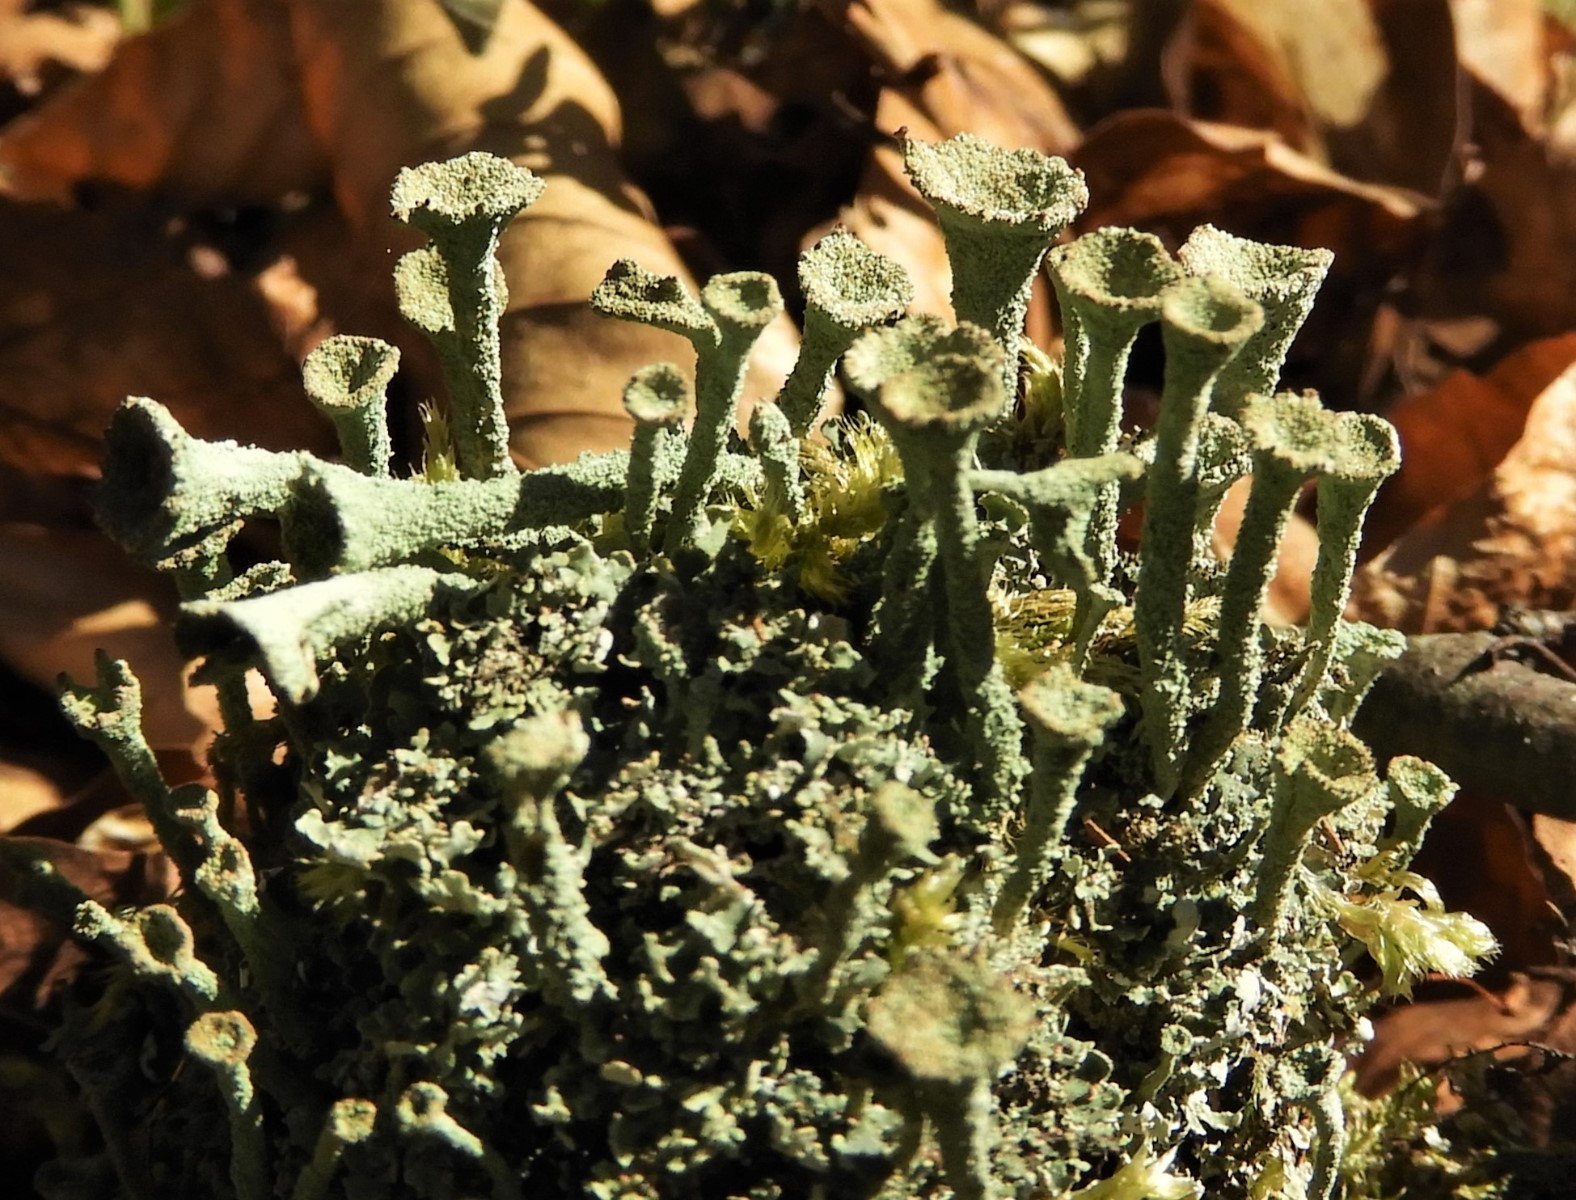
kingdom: Fungi
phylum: Ascomycota
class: Lecanoromycetes
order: Lecanorales
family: Cladoniaceae
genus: Cladonia
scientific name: Cladonia
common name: brungrøn bægerlav
